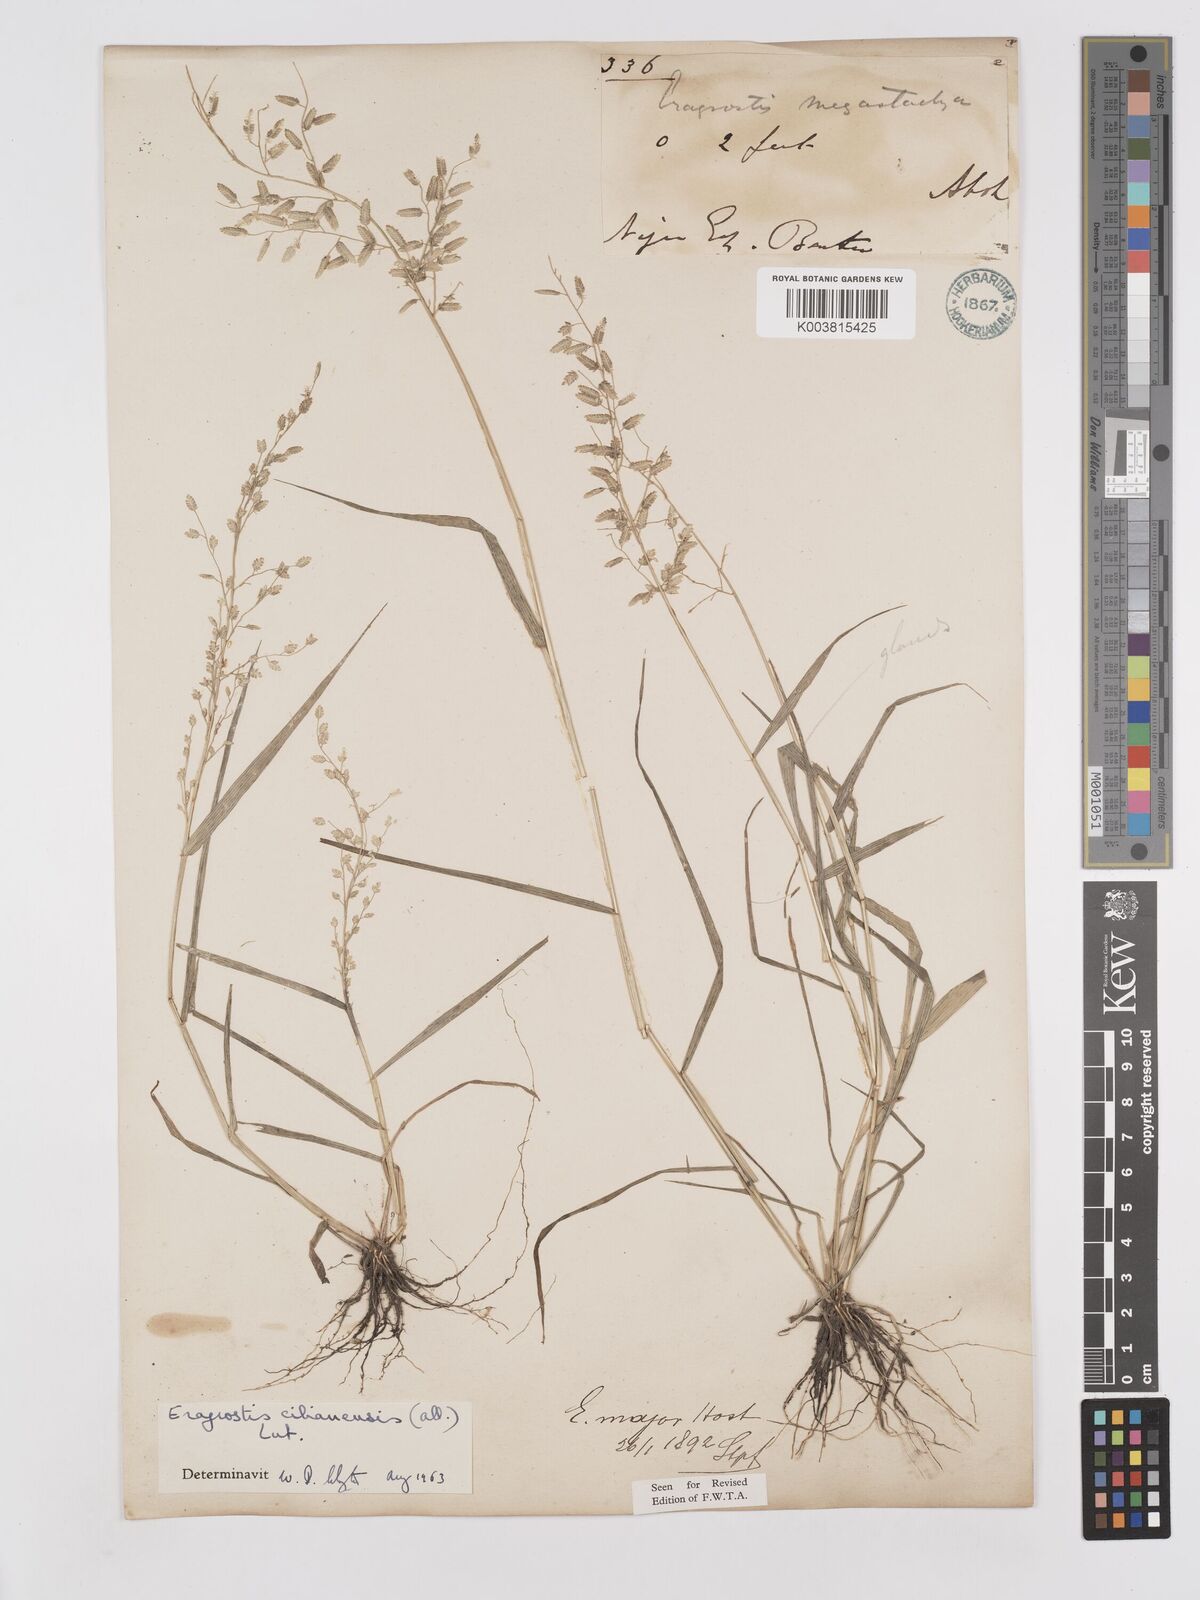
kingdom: Plantae
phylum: Tracheophyta
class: Liliopsida
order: Poales
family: Poaceae
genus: Eragrostis
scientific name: Eragrostis cilianensis
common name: Stinkgrass
